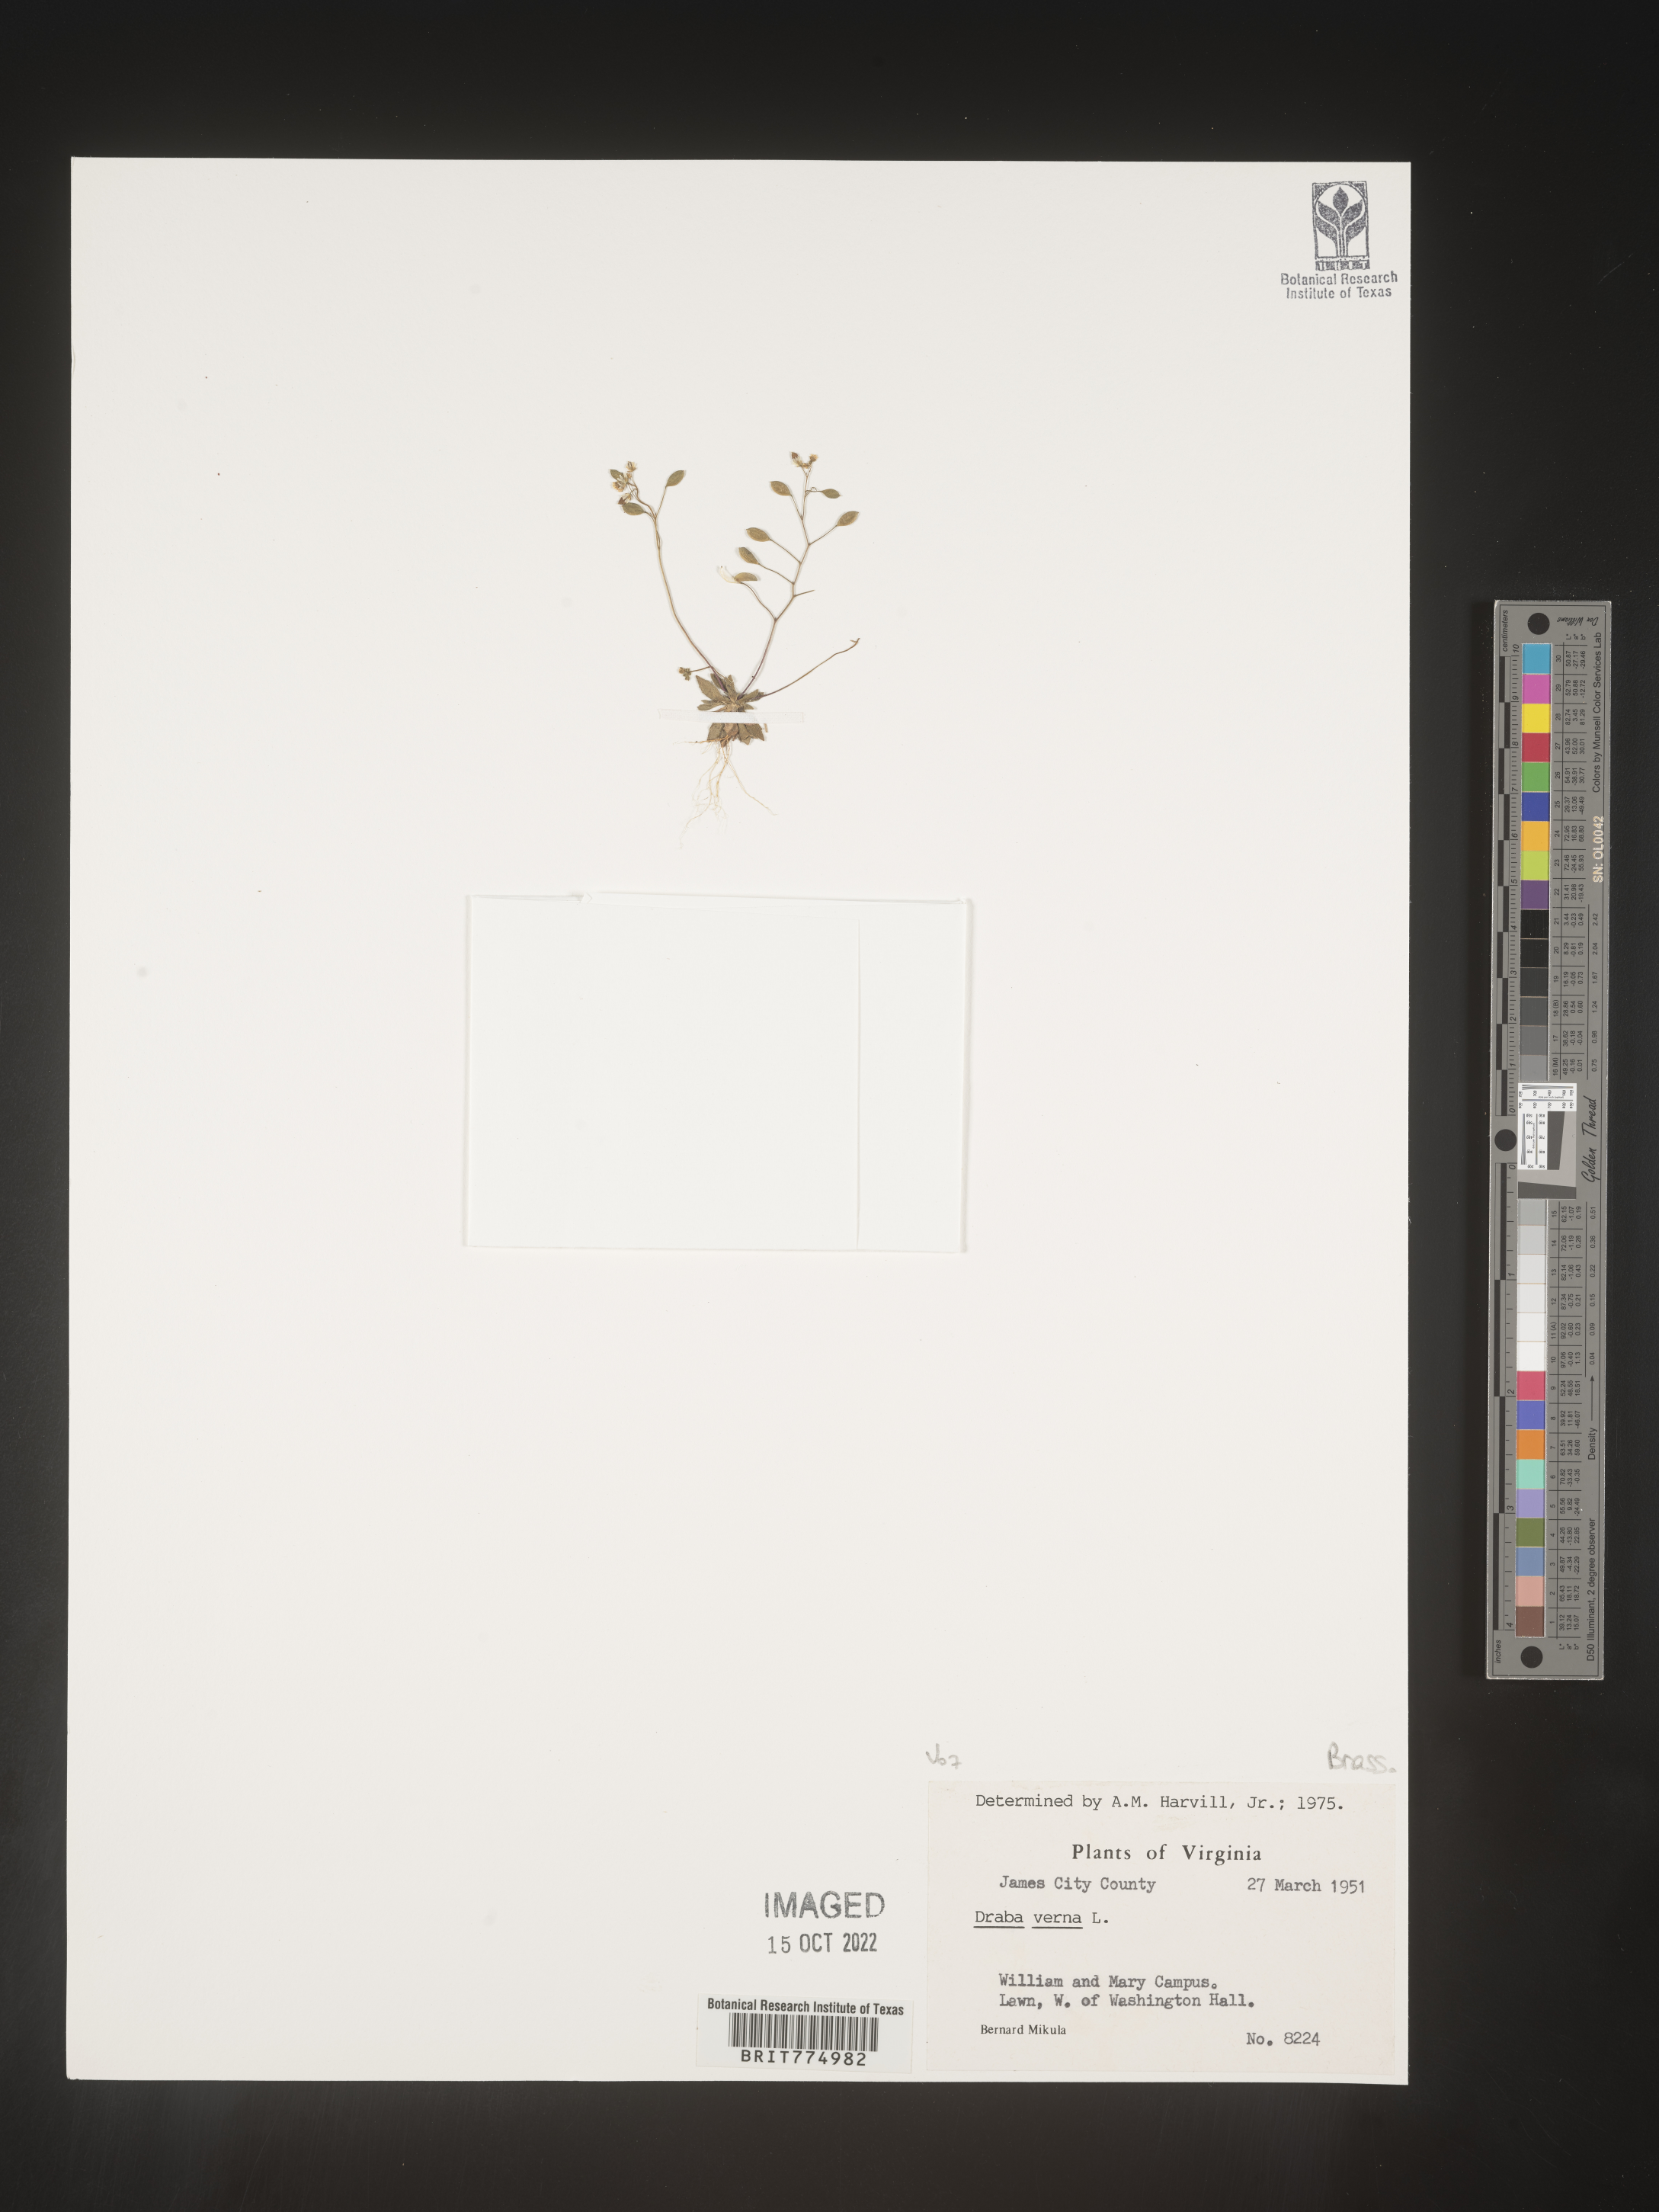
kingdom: Plantae
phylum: Tracheophyta
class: Magnoliopsida
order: Brassicales
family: Brassicaceae
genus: Draba
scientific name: Draba verna
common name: Spring draba
